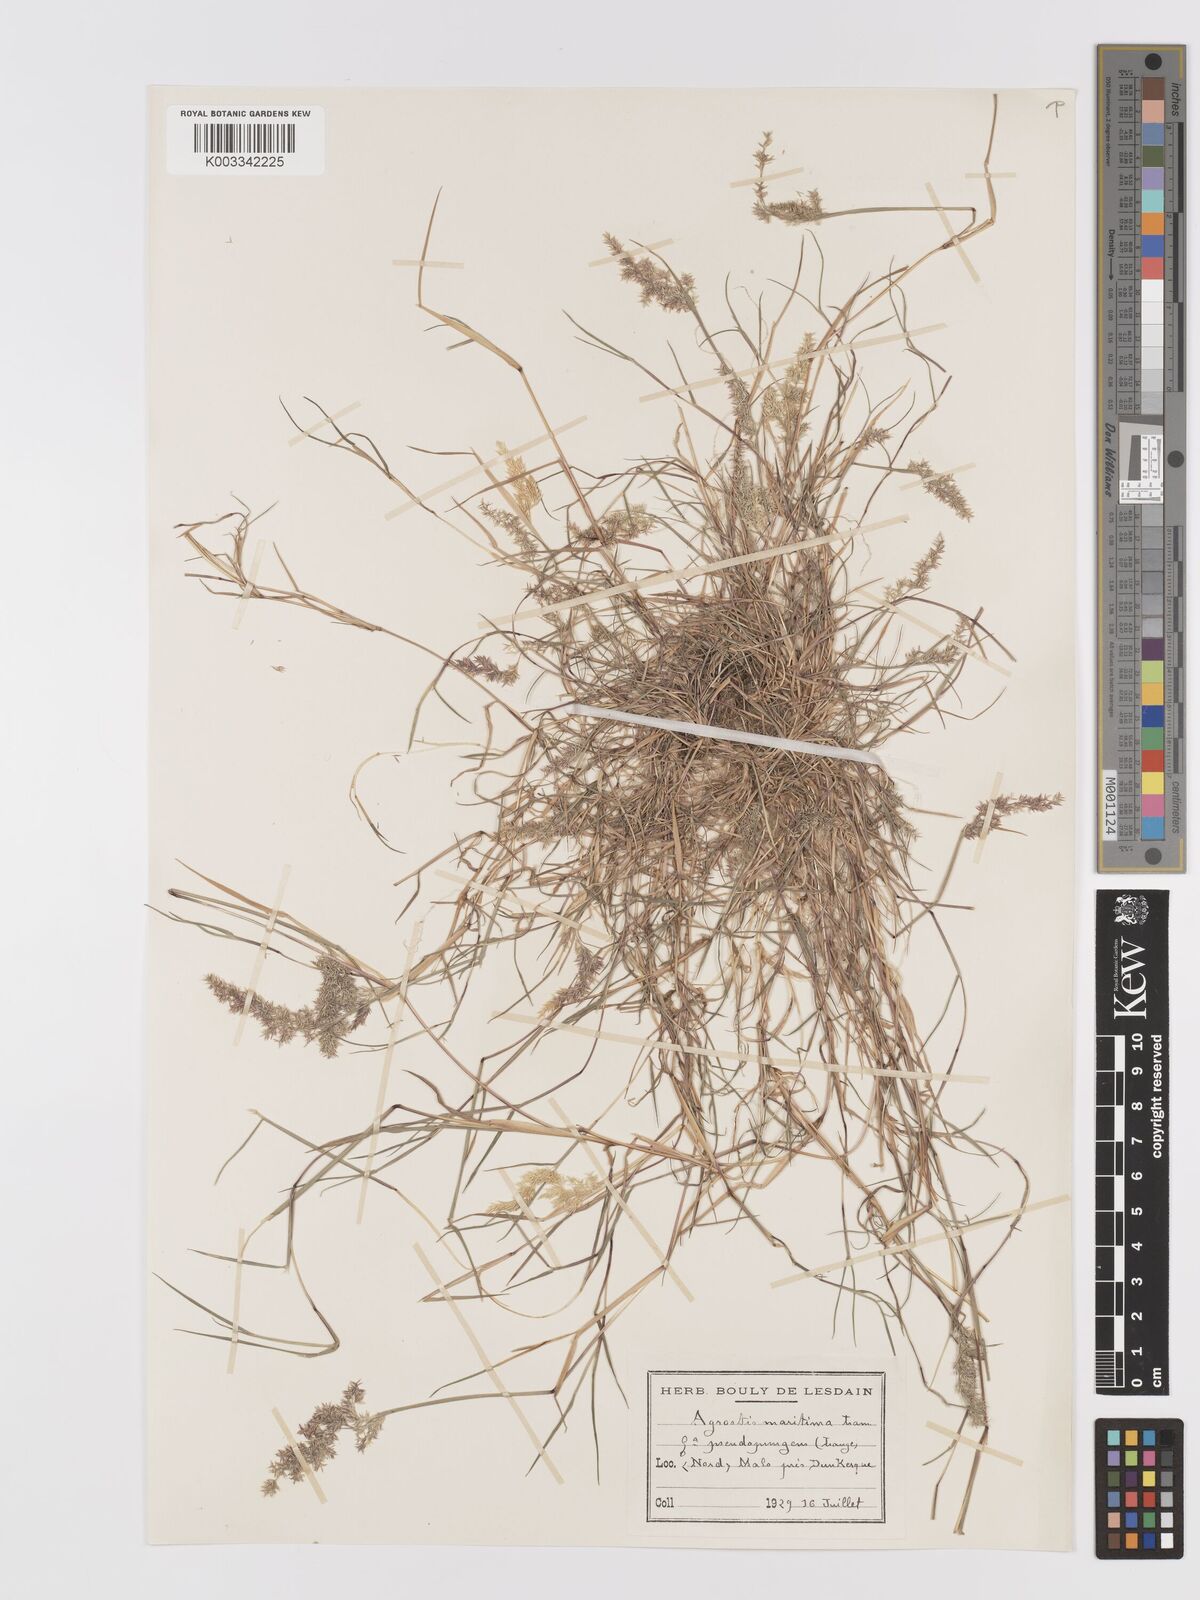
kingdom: Plantae
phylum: Tracheophyta
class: Liliopsida
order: Poales
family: Poaceae
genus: Agrostis
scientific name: Agrostis stolonifera
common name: Creeping bentgrass
